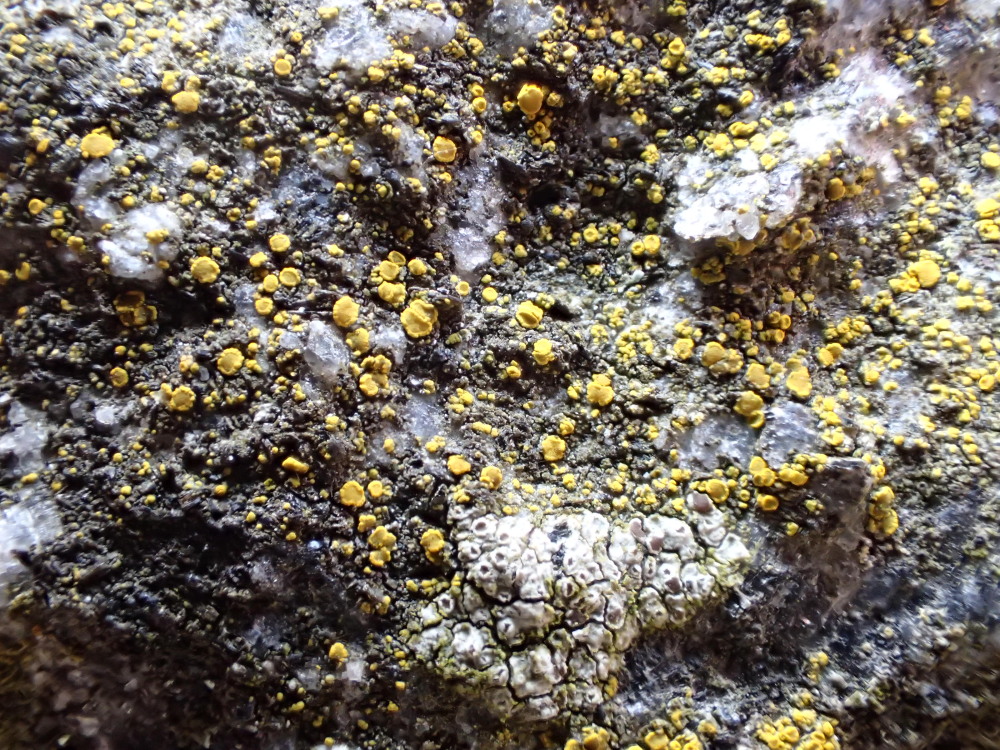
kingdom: Fungi
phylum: Ascomycota
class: Candelariomycetes
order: Candelariales
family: Candelariaceae
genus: Candelariella
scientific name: Candelariella aurella
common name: liden æggeblommelav
